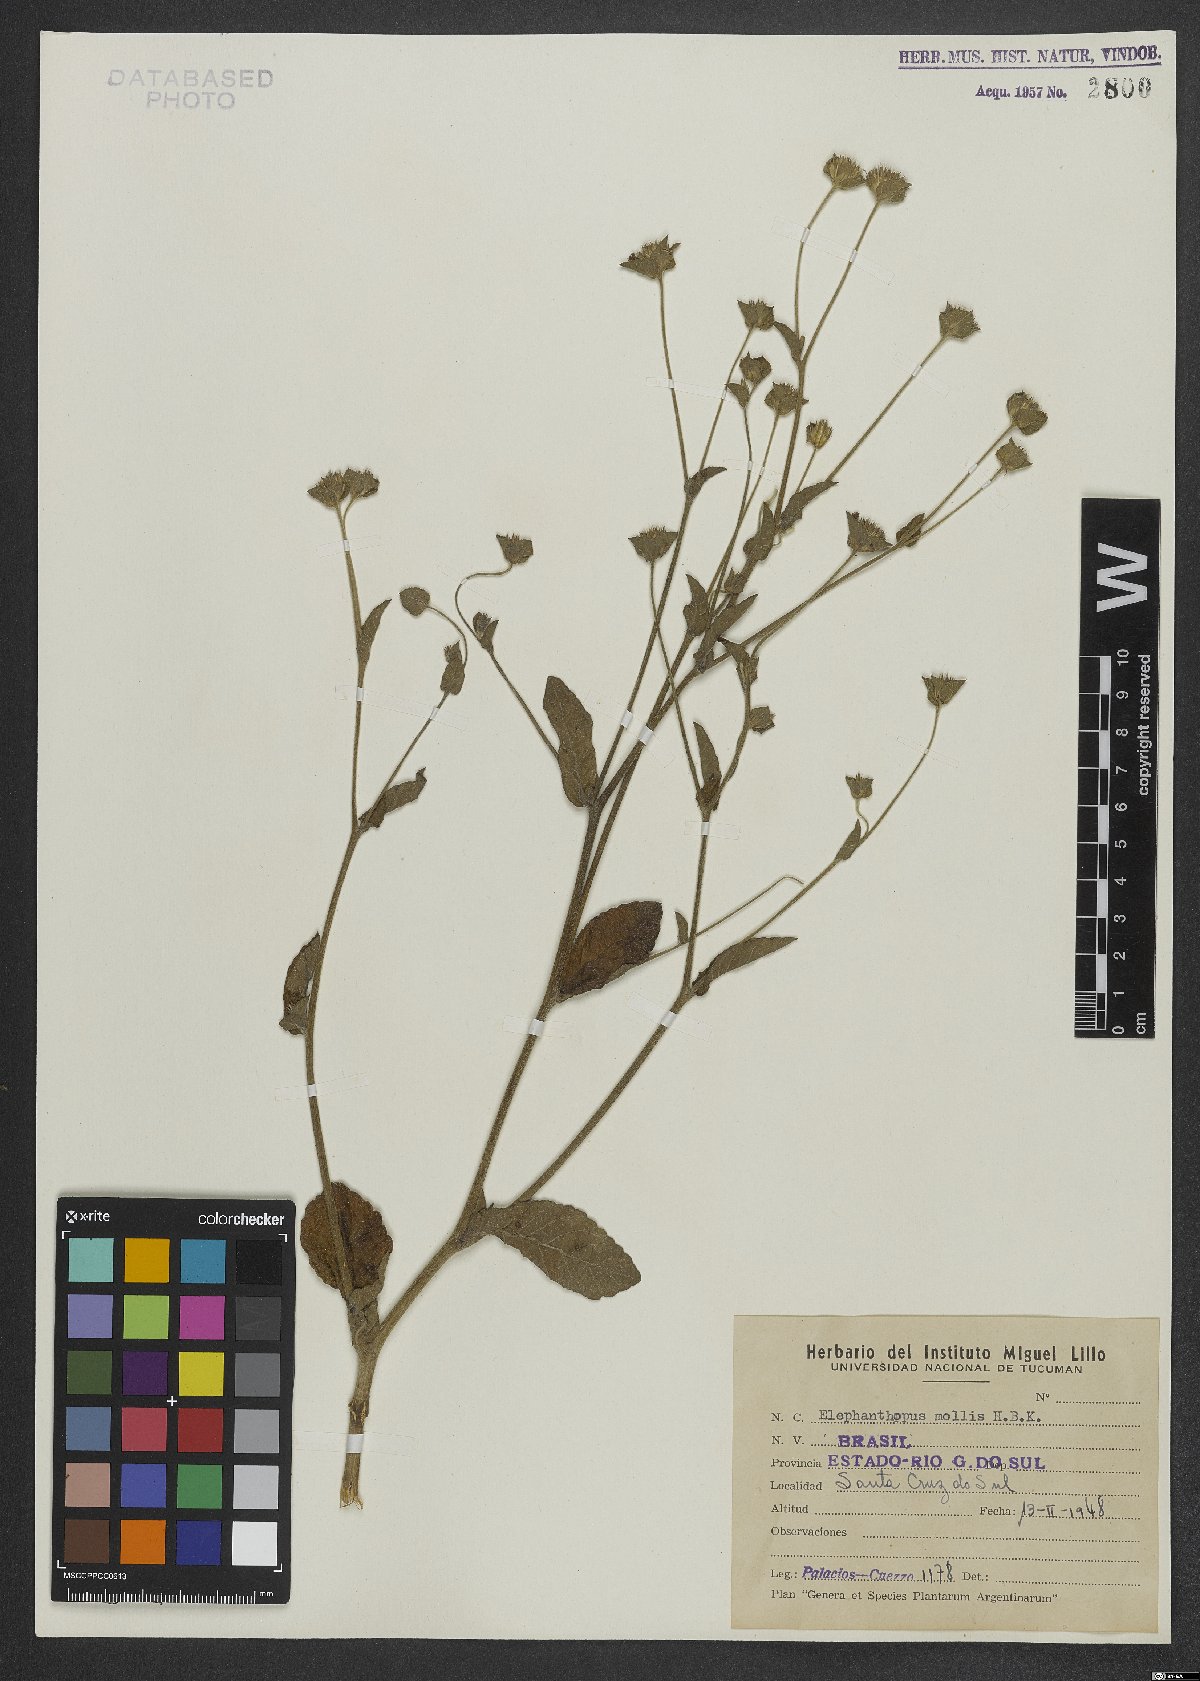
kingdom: Plantae
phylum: Tracheophyta
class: Magnoliopsida
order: Asterales
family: Asteraceae
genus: Elephantopus
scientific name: Elephantopus mollis
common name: Soft elephantsfoot
